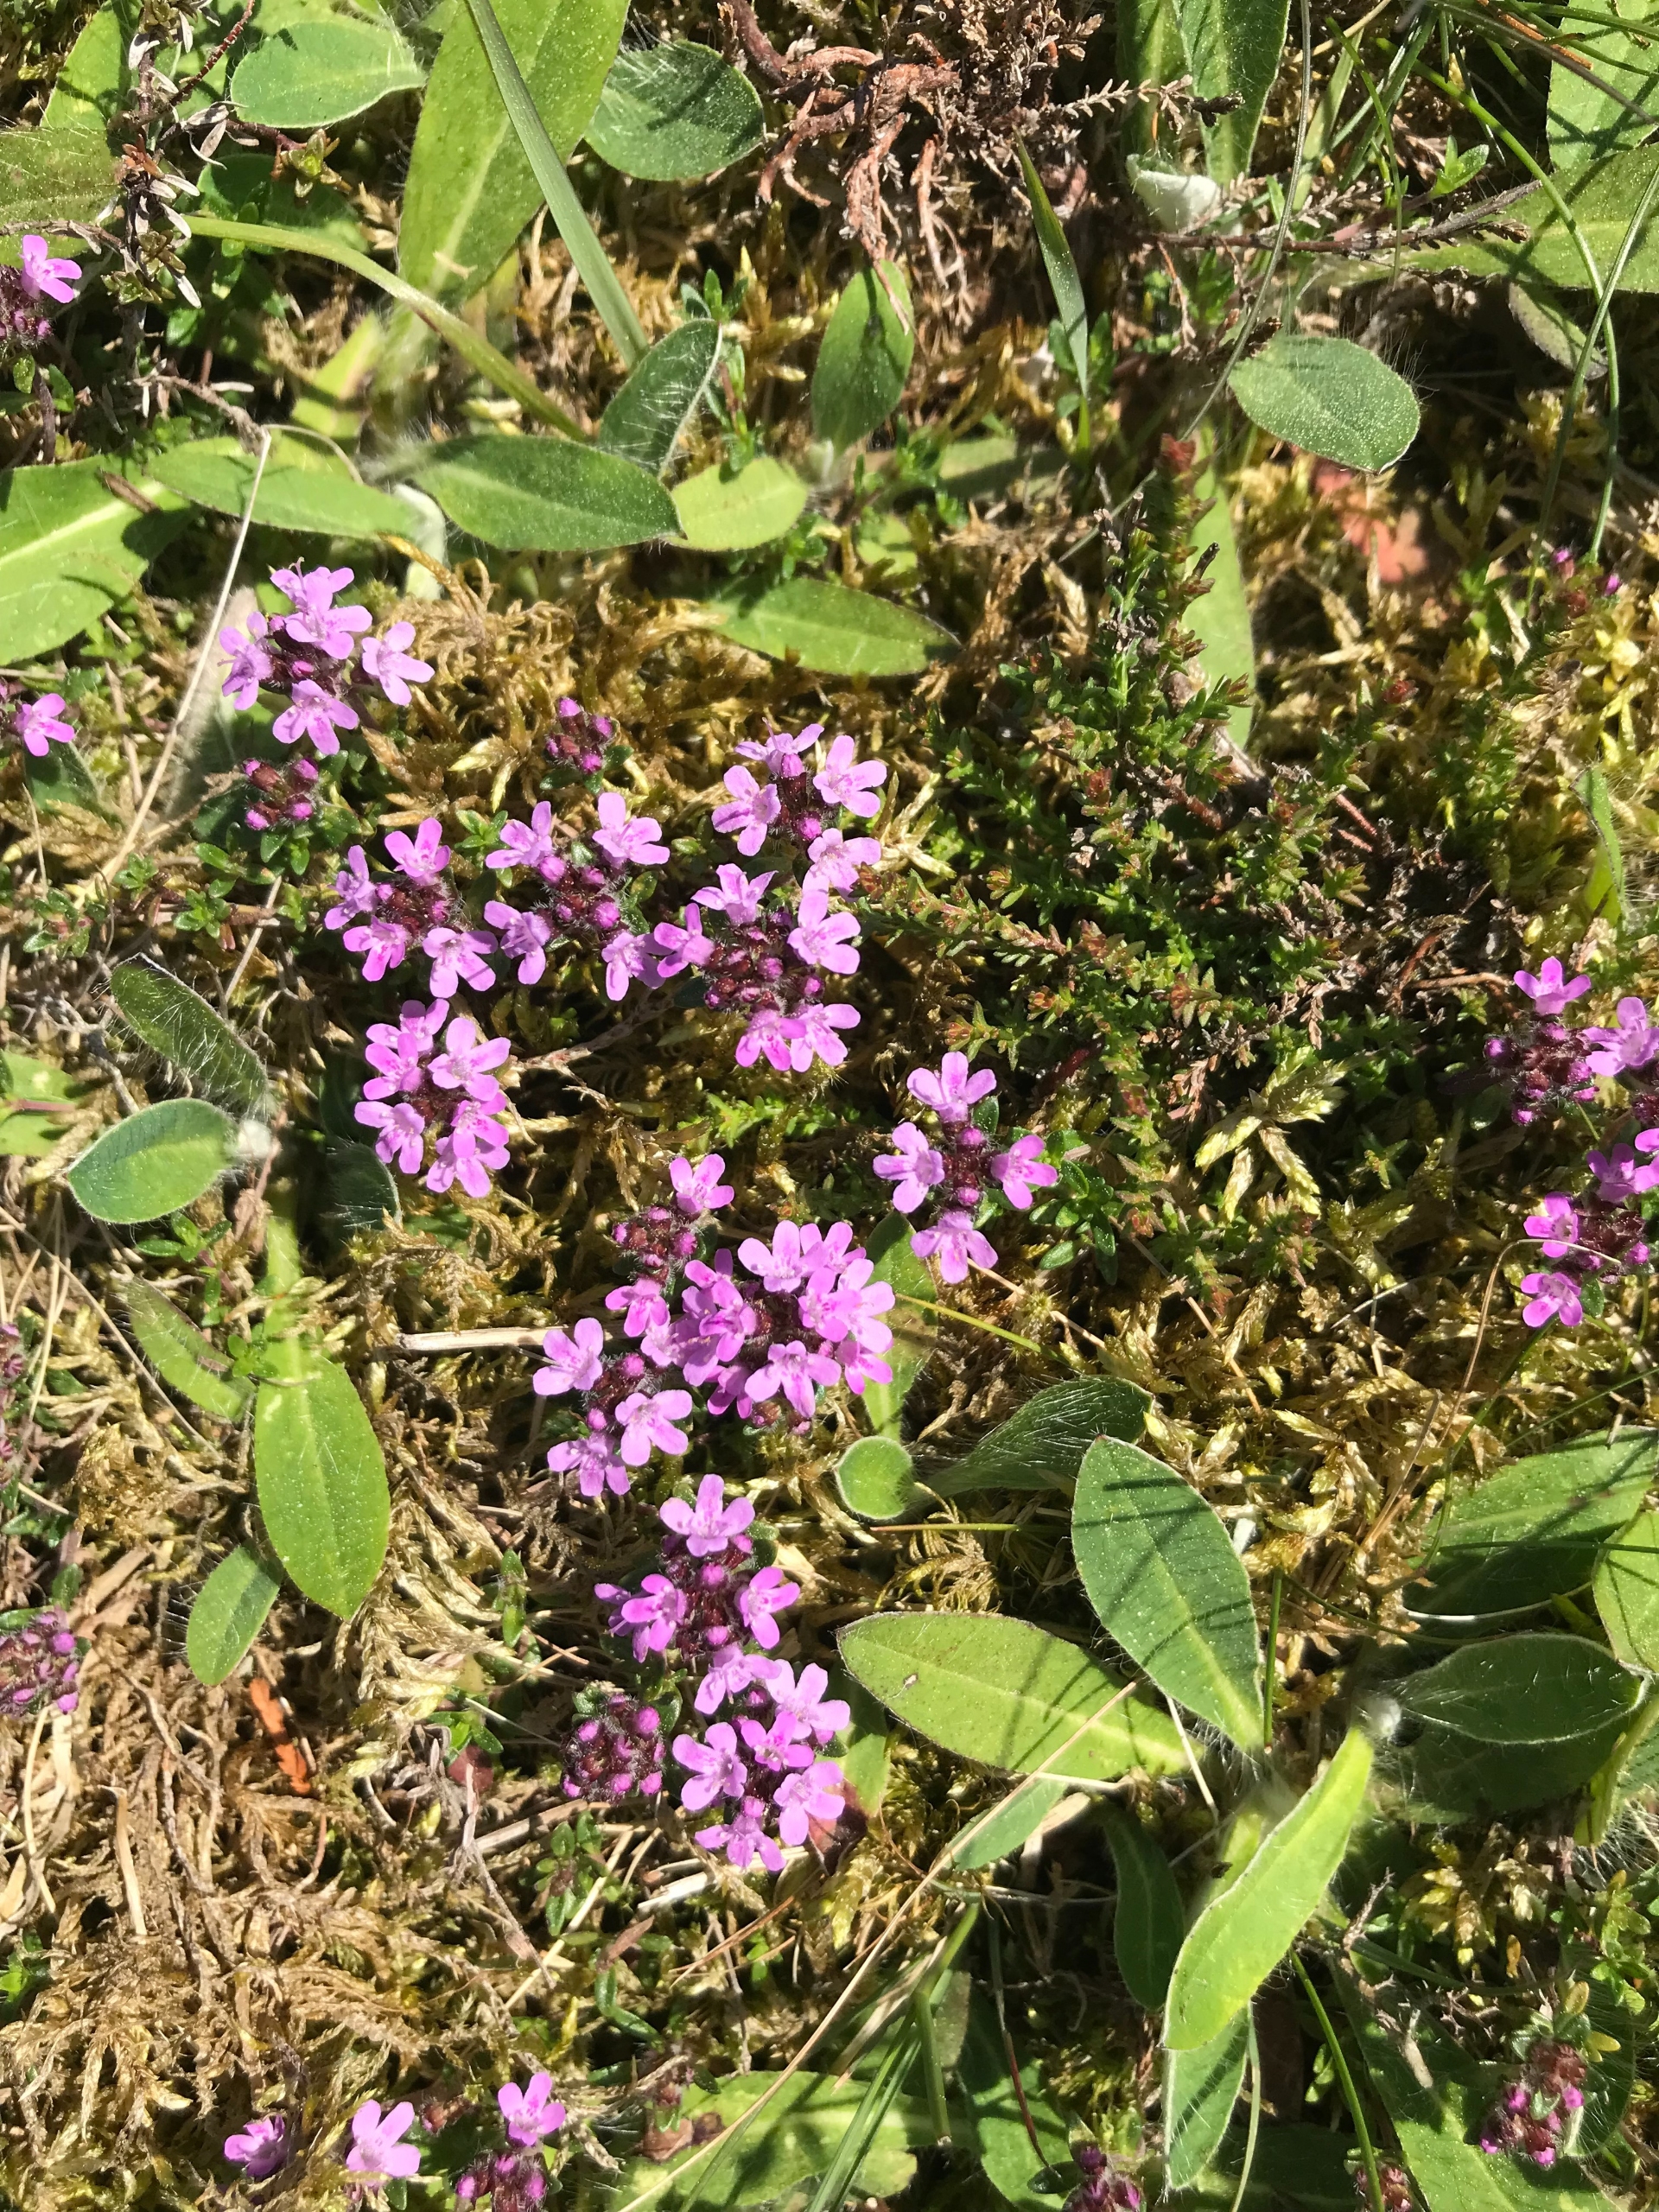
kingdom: Plantae
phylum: Tracheophyta
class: Magnoliopsida
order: Lamiales
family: Lamiaceae
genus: Thymus
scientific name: Thymus serpyllum
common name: Smalbladet timian
